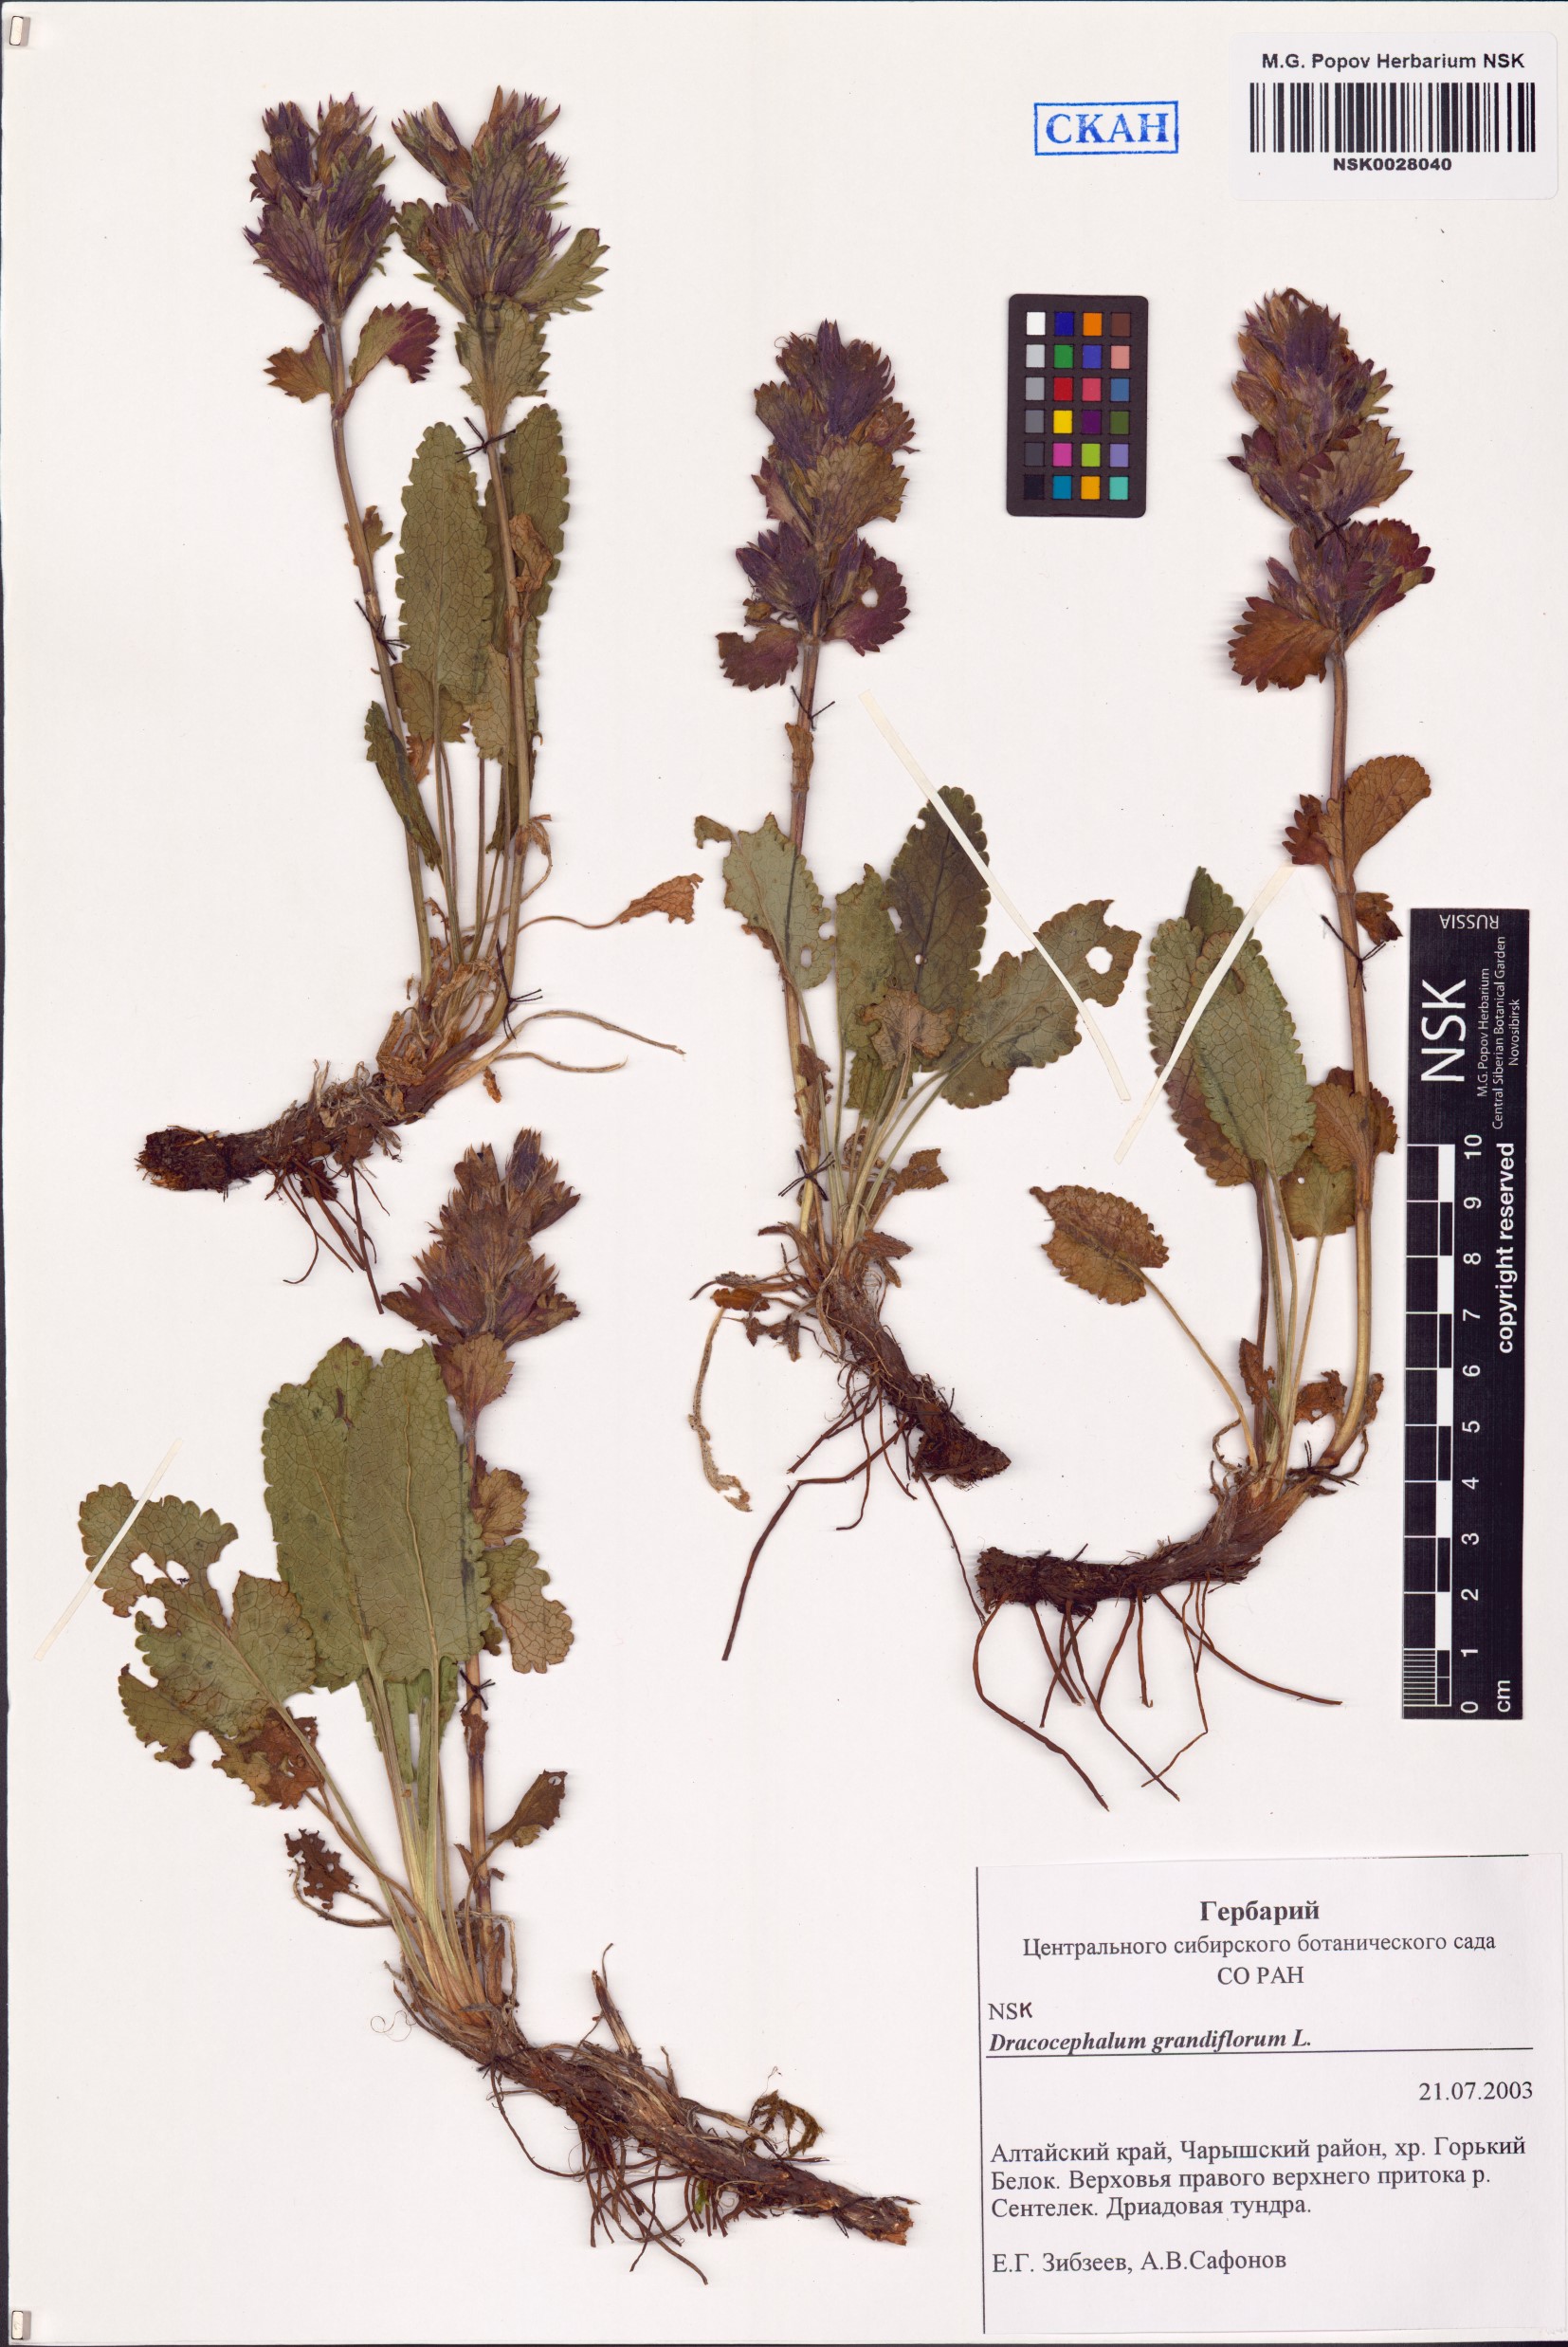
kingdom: Plantae
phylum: Tracheophyta
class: Magnoliopsida
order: Lamiales
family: Lamiaceae
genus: Dracocephalum
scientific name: Dracocephalum grandiflorum
